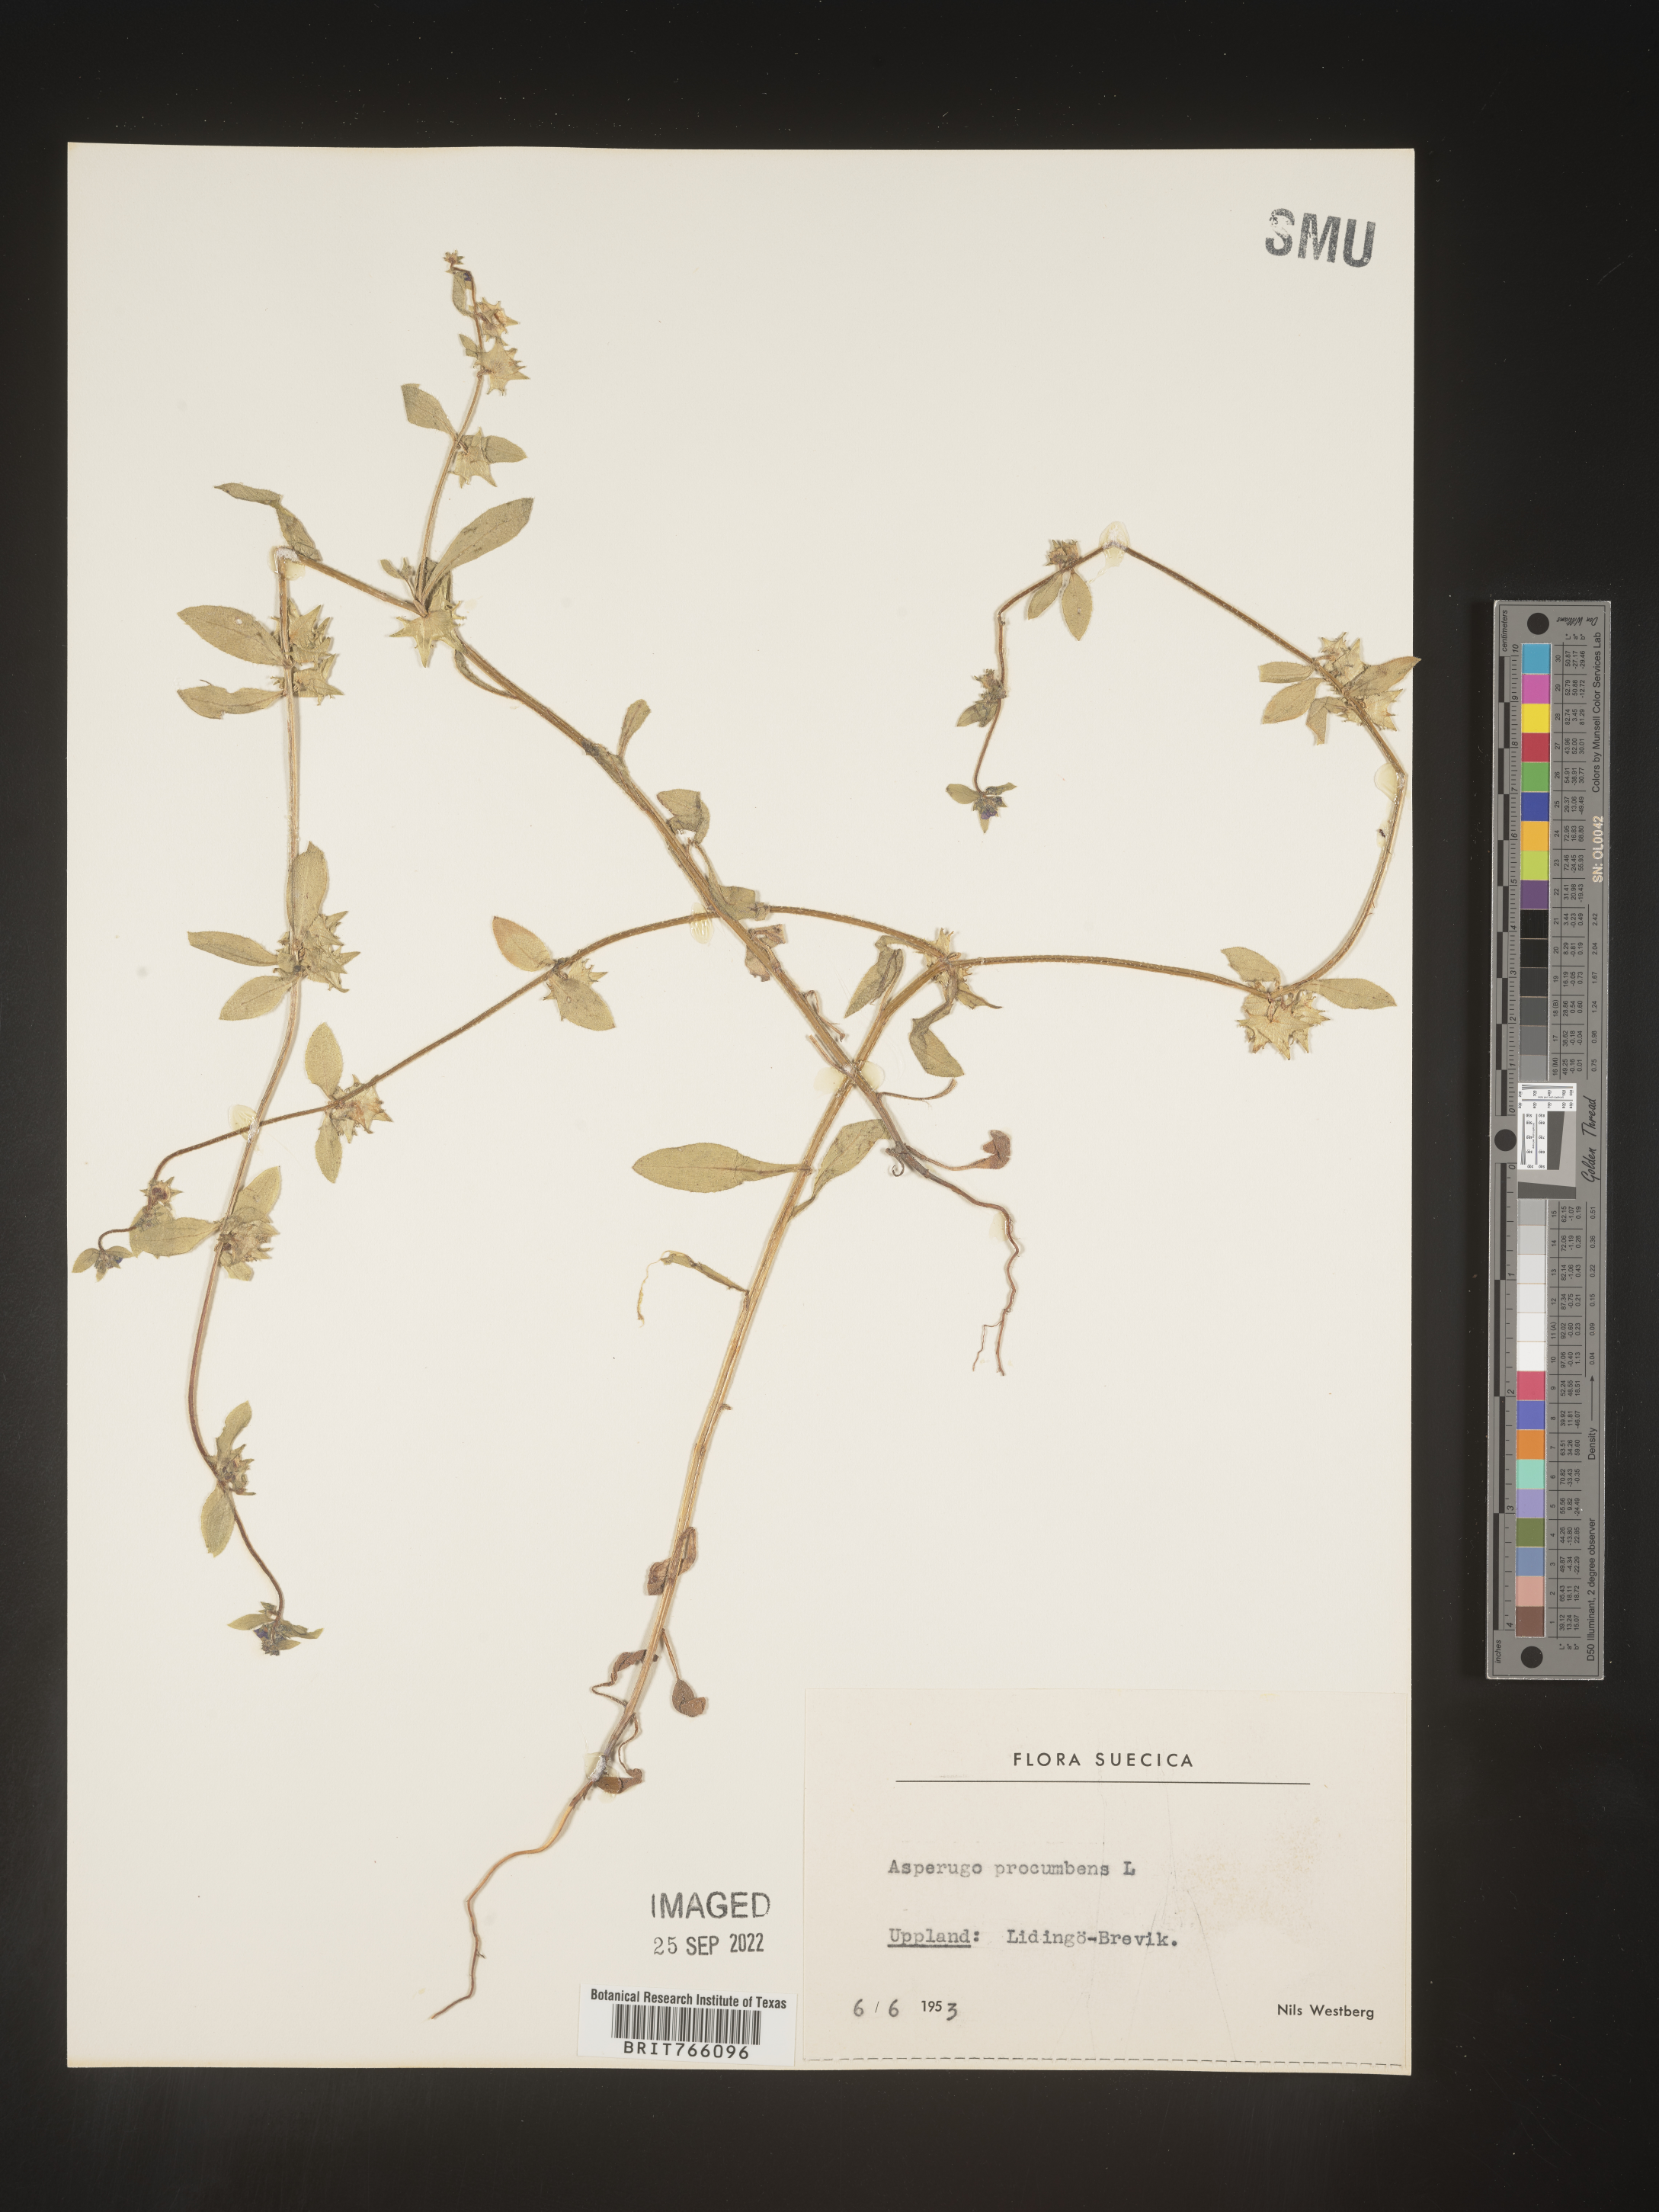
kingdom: Plantae
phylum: Tracheophyta
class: Magnoliopsida
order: Boraginales
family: Boraginaceae
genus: Asperugo
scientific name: Asperugo
